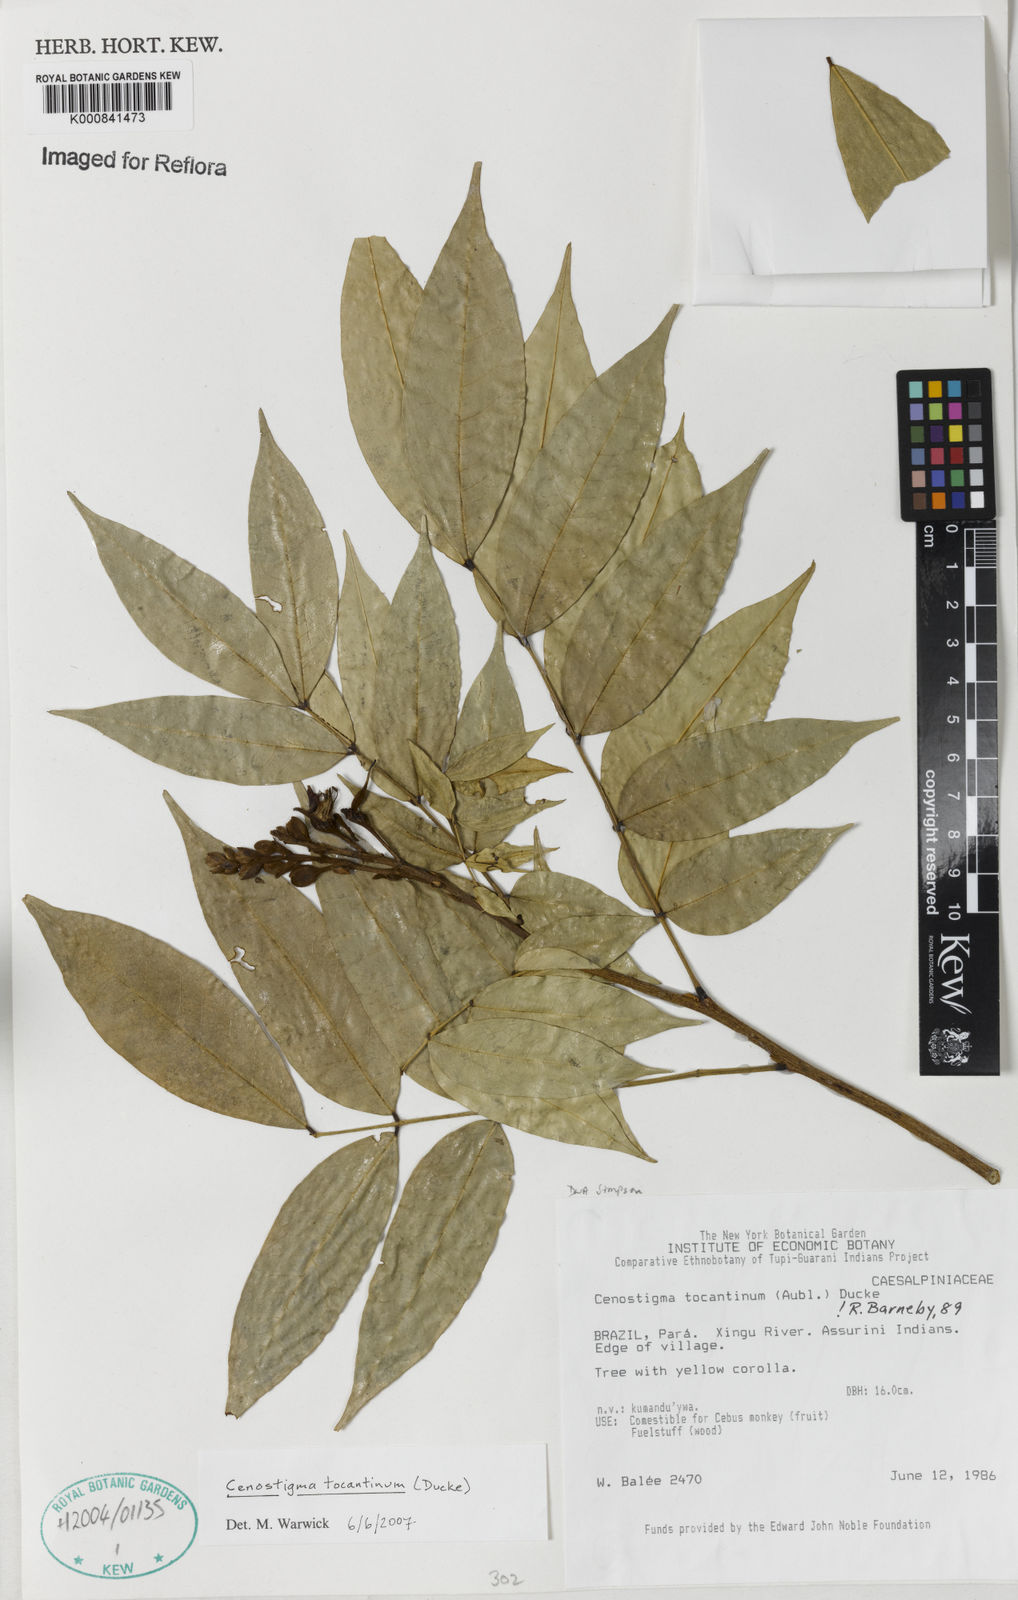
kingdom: Plantae
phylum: Tracheophyta
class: Magnoliopsida
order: Fabales
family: Fabaceae
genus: Cenostigma
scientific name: Cenostigma tocantinum
